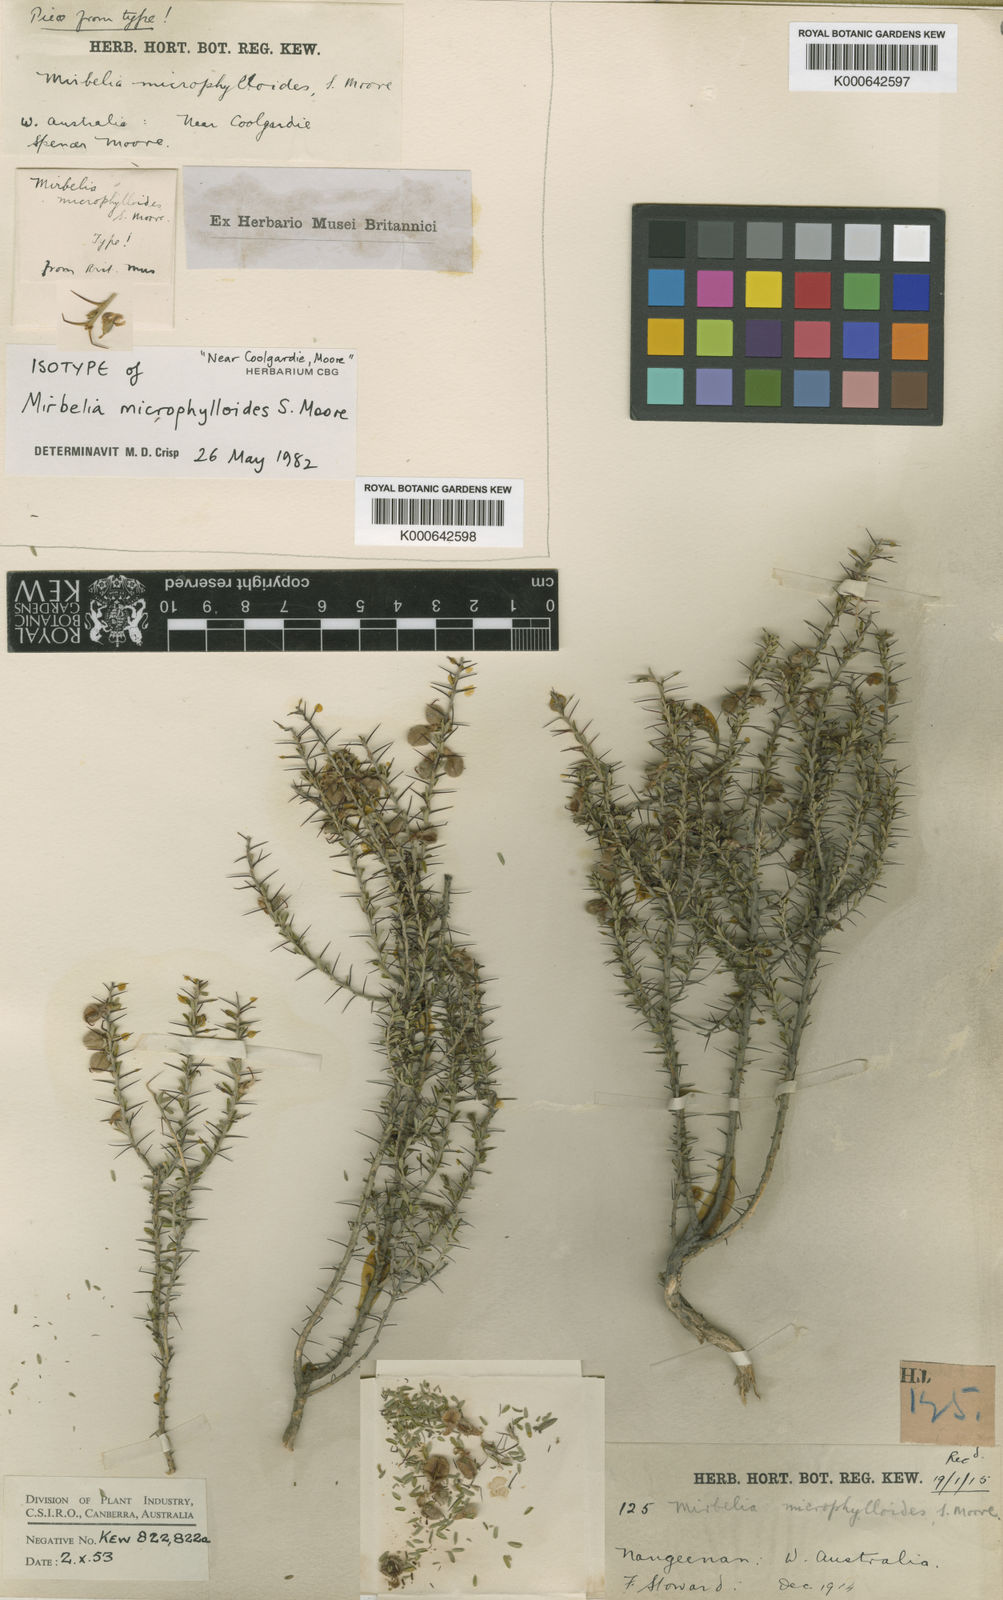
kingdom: Plantae
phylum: Tracheophyta
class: Magnoliopsida
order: Fabales
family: Fabaceae
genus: Mirbelia
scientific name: Mirbelia microphylla
